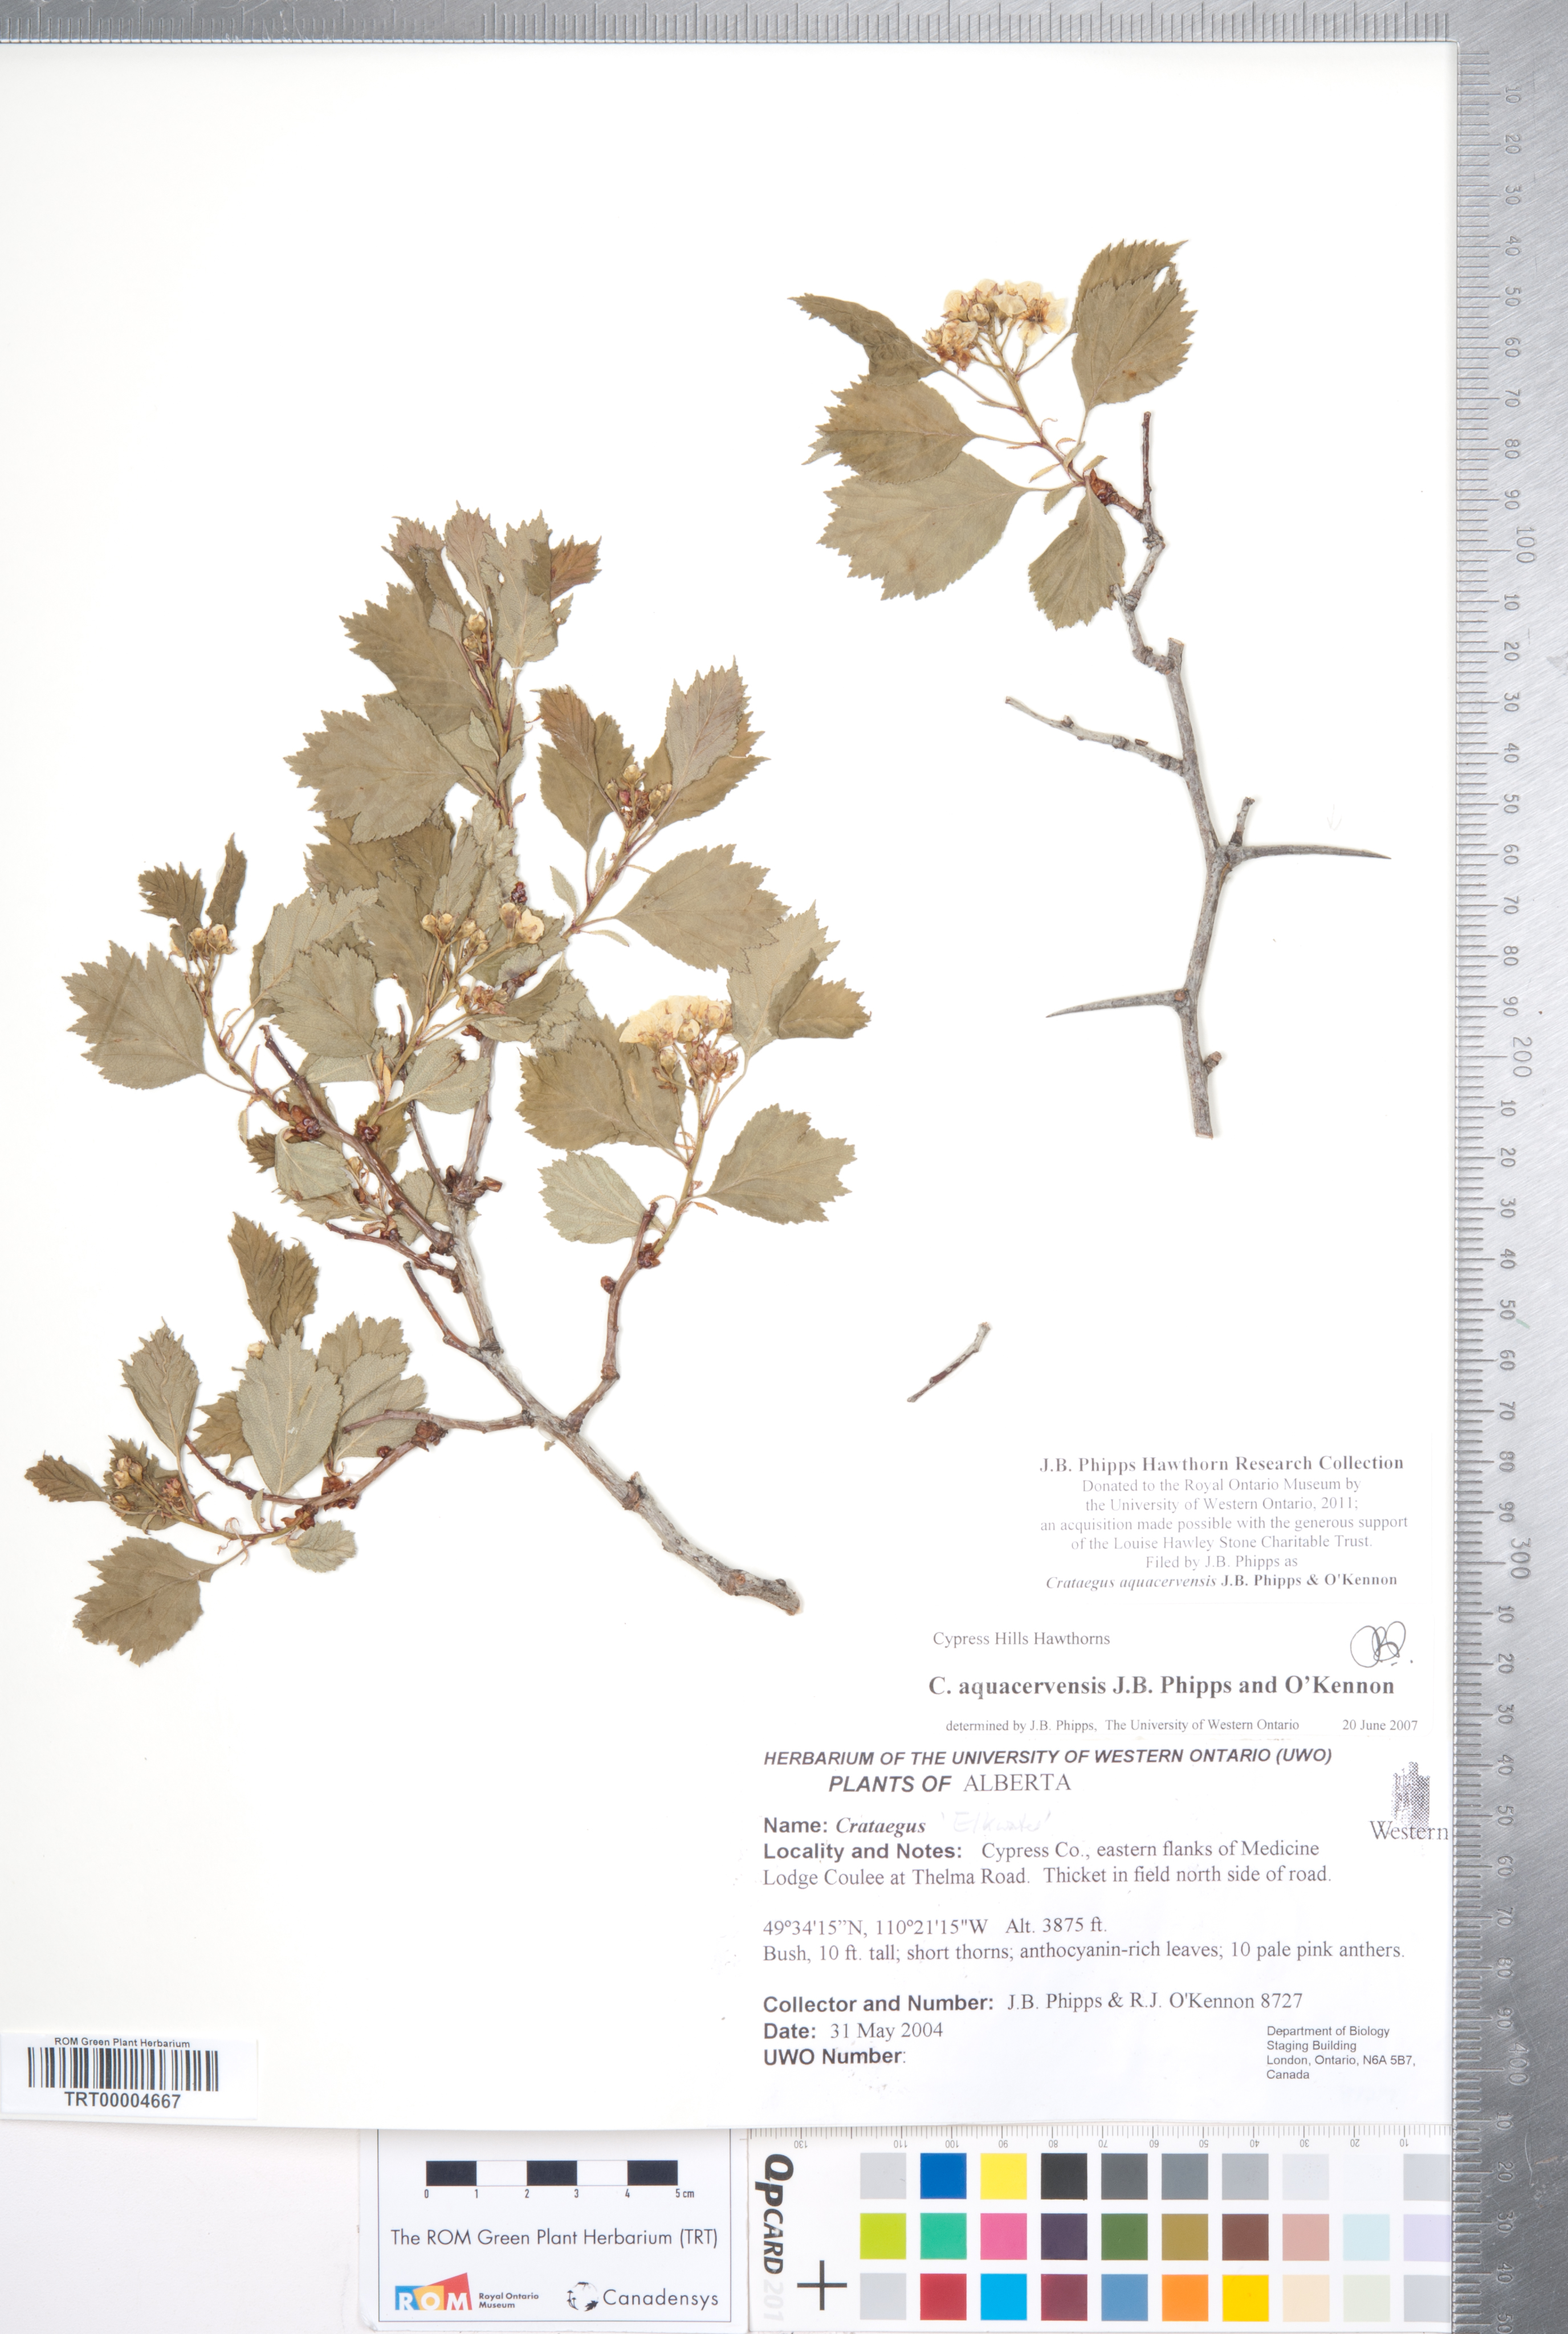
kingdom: Plantae
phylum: Tracheophyta
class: Magnoliopsida
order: Rosales
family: Rosaceae
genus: Crataegus
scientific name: Crataegus aquacervensis
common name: Elkwater hawthorn
